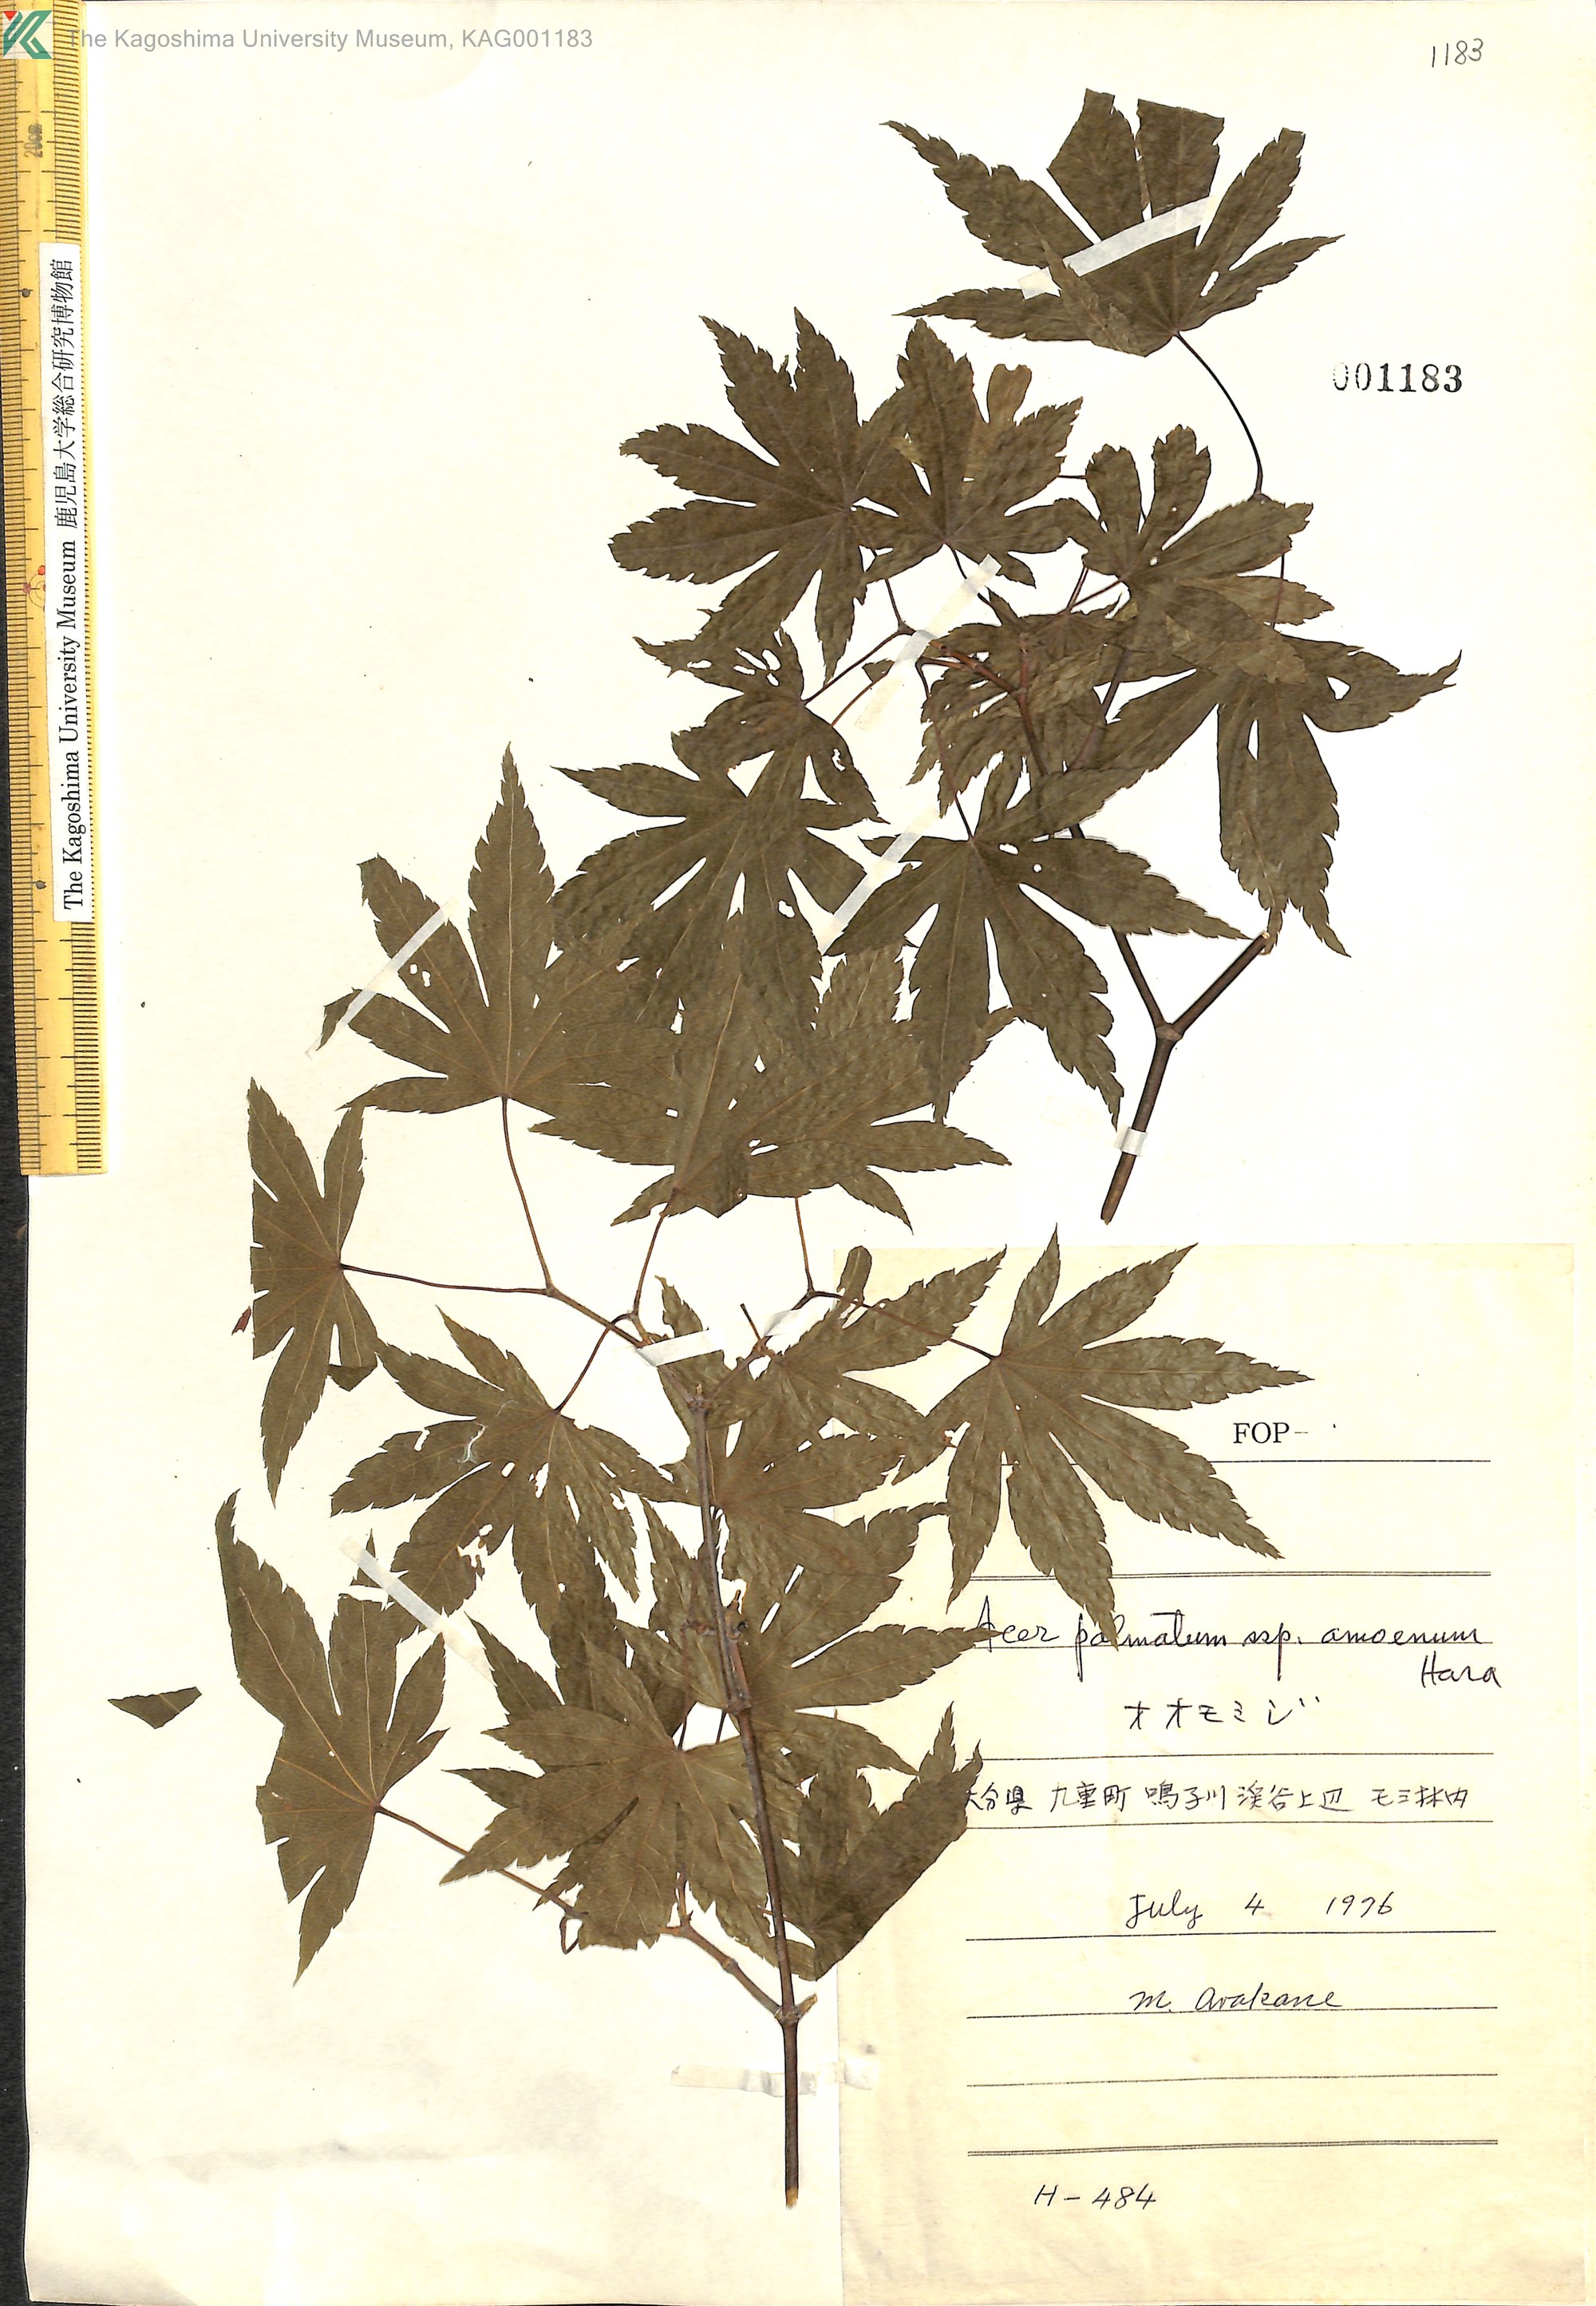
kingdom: Plantae
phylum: Tracheophyta
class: Magnoliopsida
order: Sapindales
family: Sapindaceae
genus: Acer
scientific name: Acer palmatum
